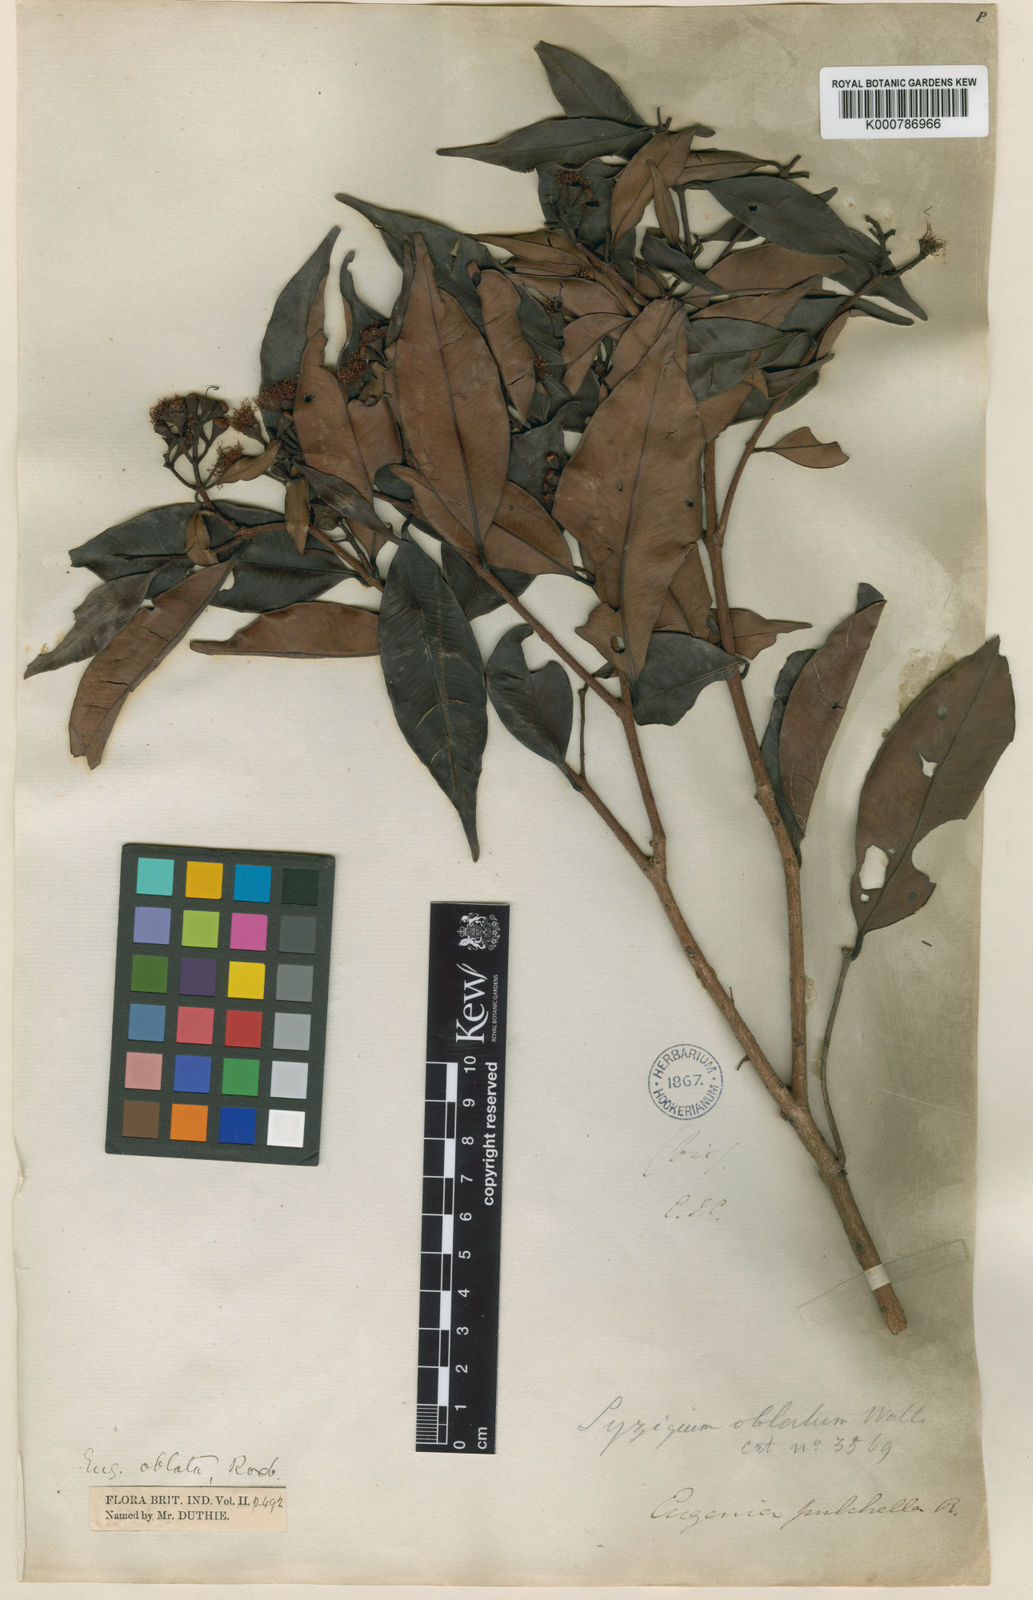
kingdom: Plantae
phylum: Tracheophyta
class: Magnoliopsida
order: Myrtales
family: Myrtaceae
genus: Syzygium
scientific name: Syzygium
